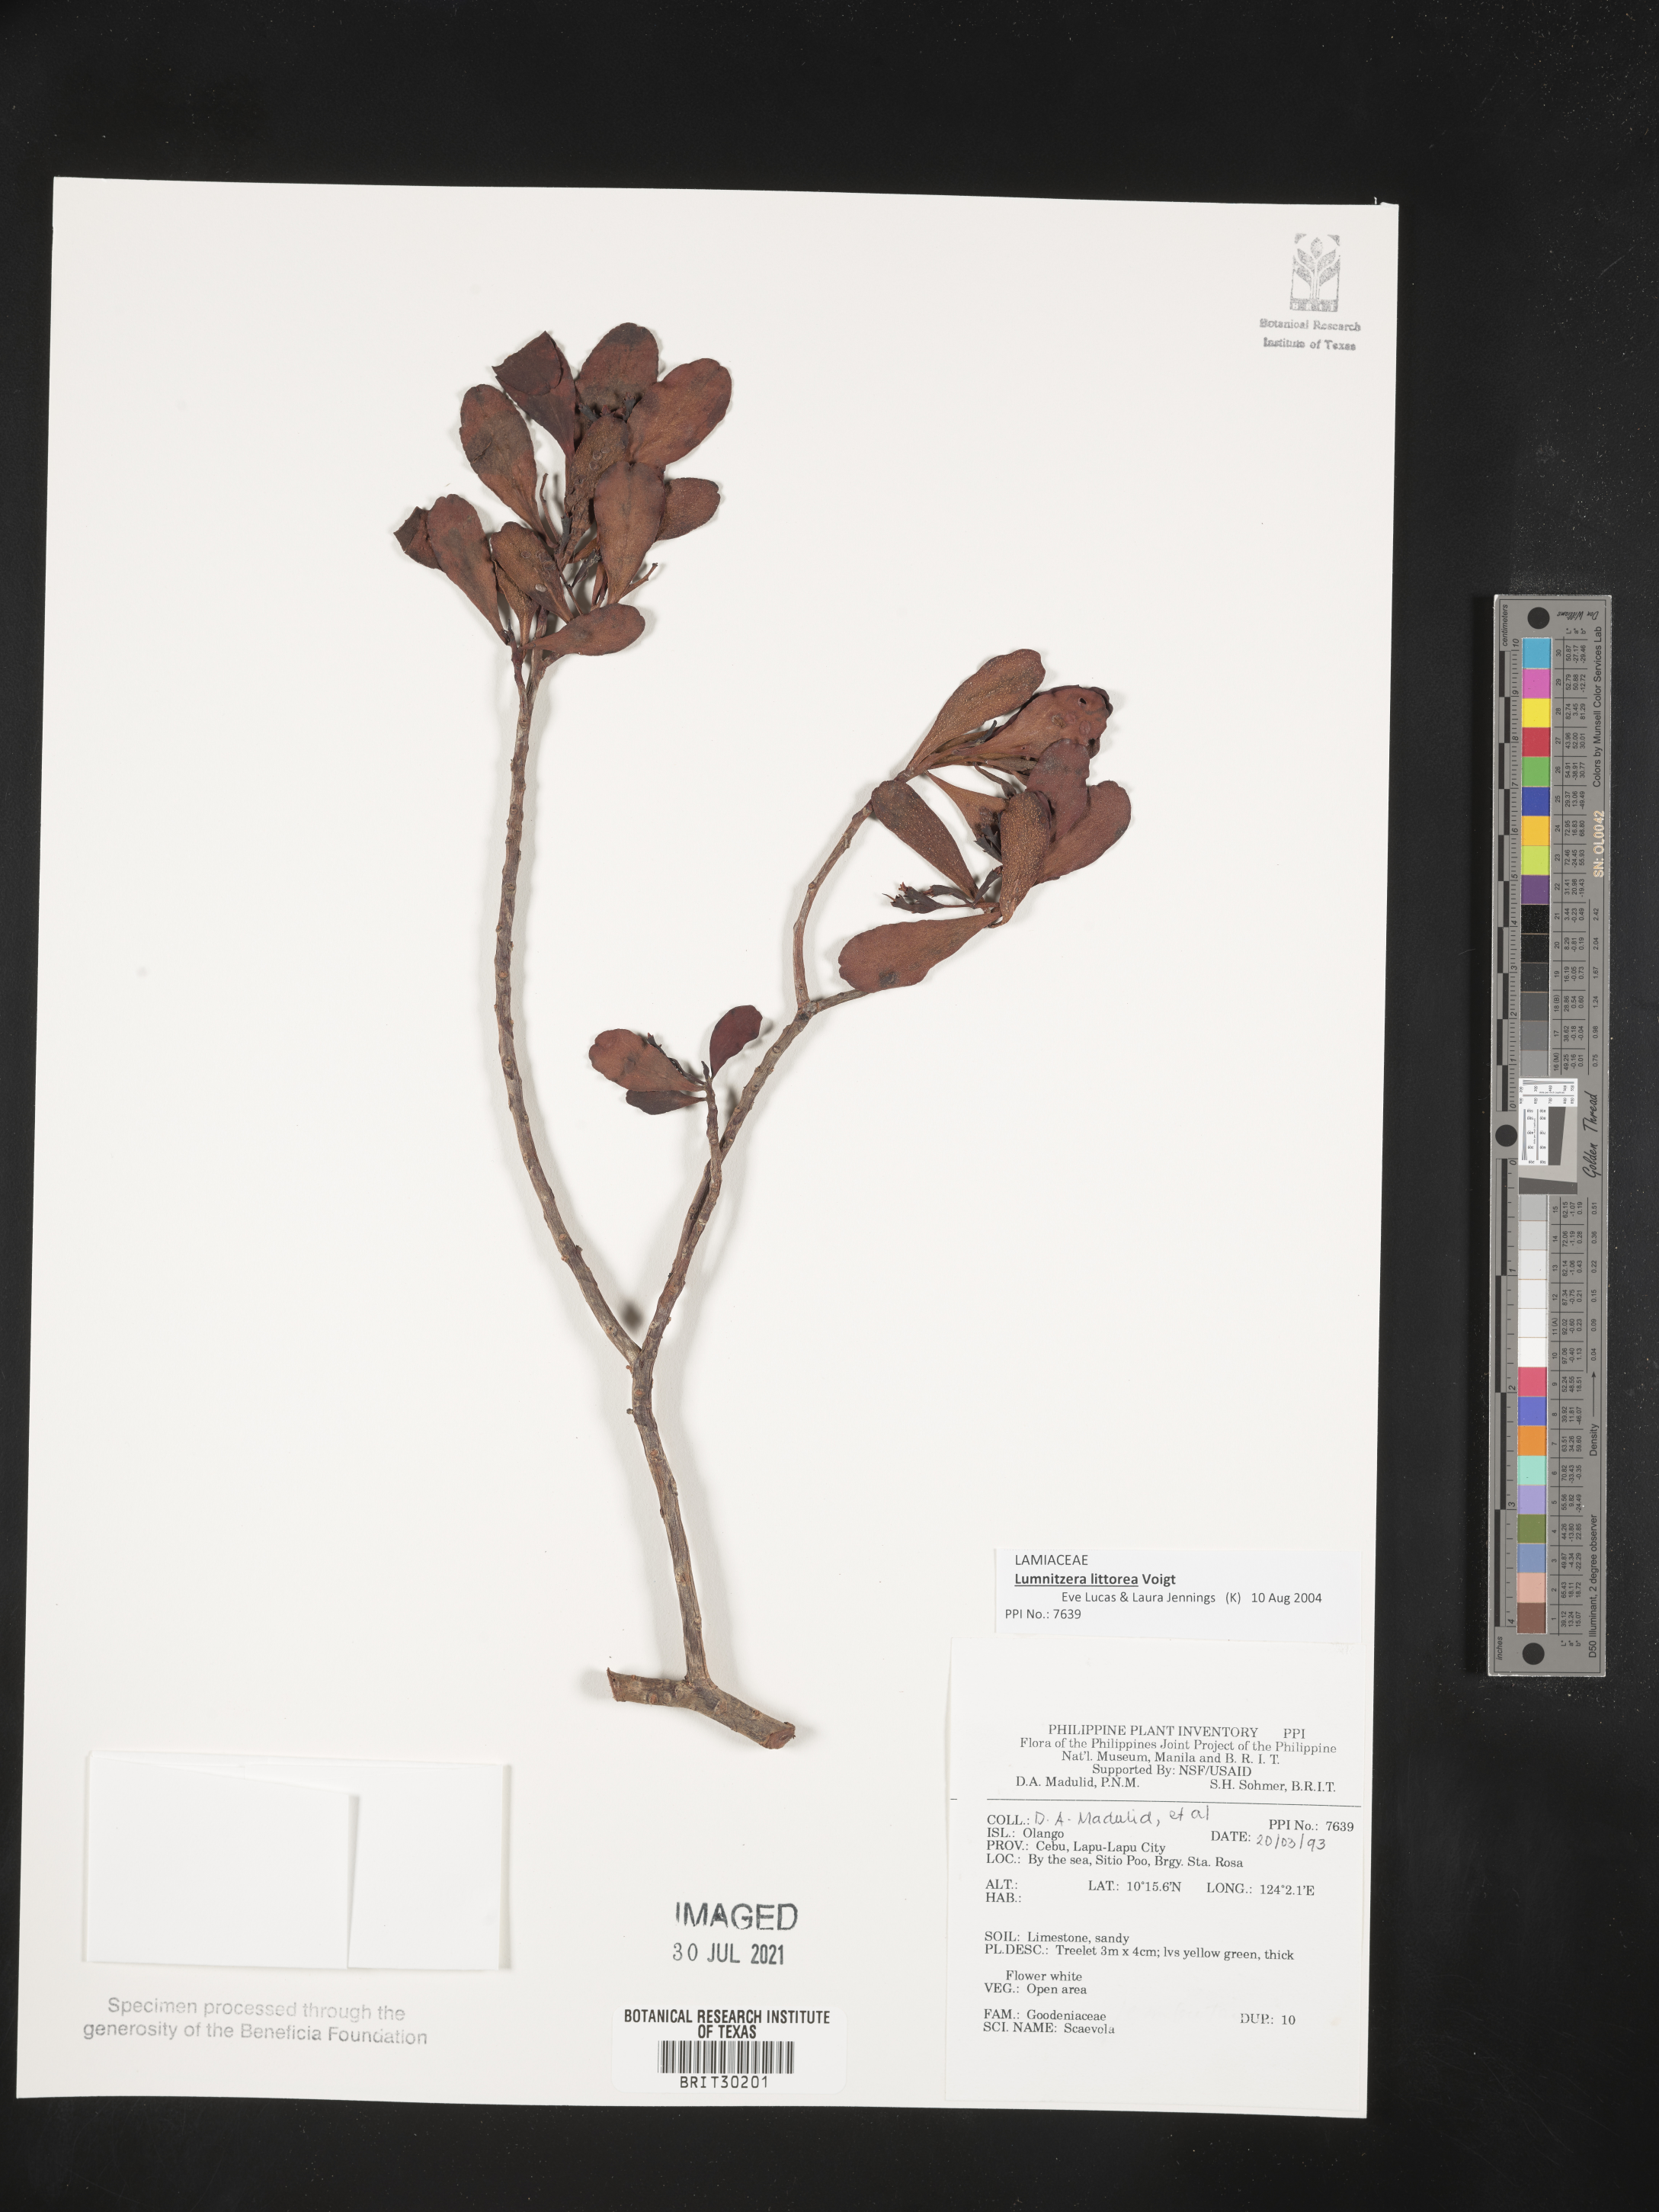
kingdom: Plantae
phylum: Tracheophyta
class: Magnoliopsida
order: Asterales
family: Goodeniaceae
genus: Scaevola
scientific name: Scaevola
